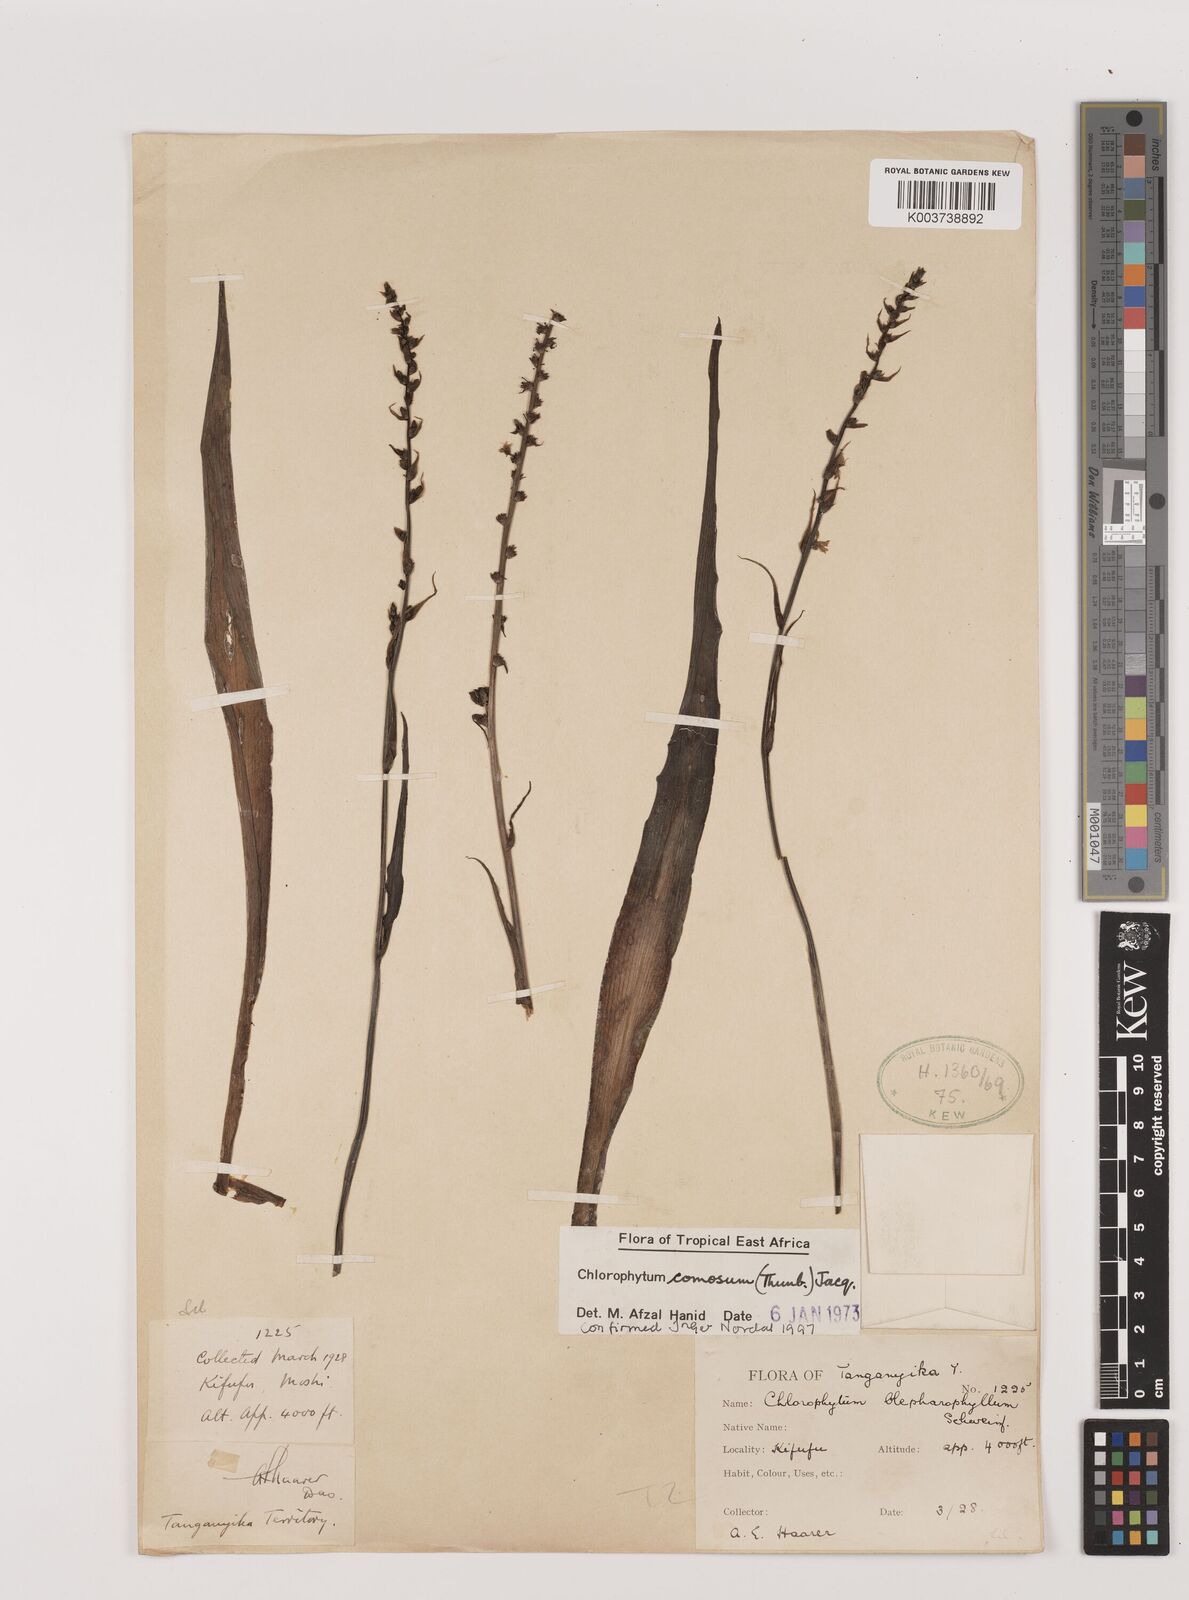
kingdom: Plantae
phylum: Tracheophyta
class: Liliopsida
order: Asparagales
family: Asparagaceae
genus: Chlorophytum
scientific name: Chlorophytum comosum
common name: Spider plant
